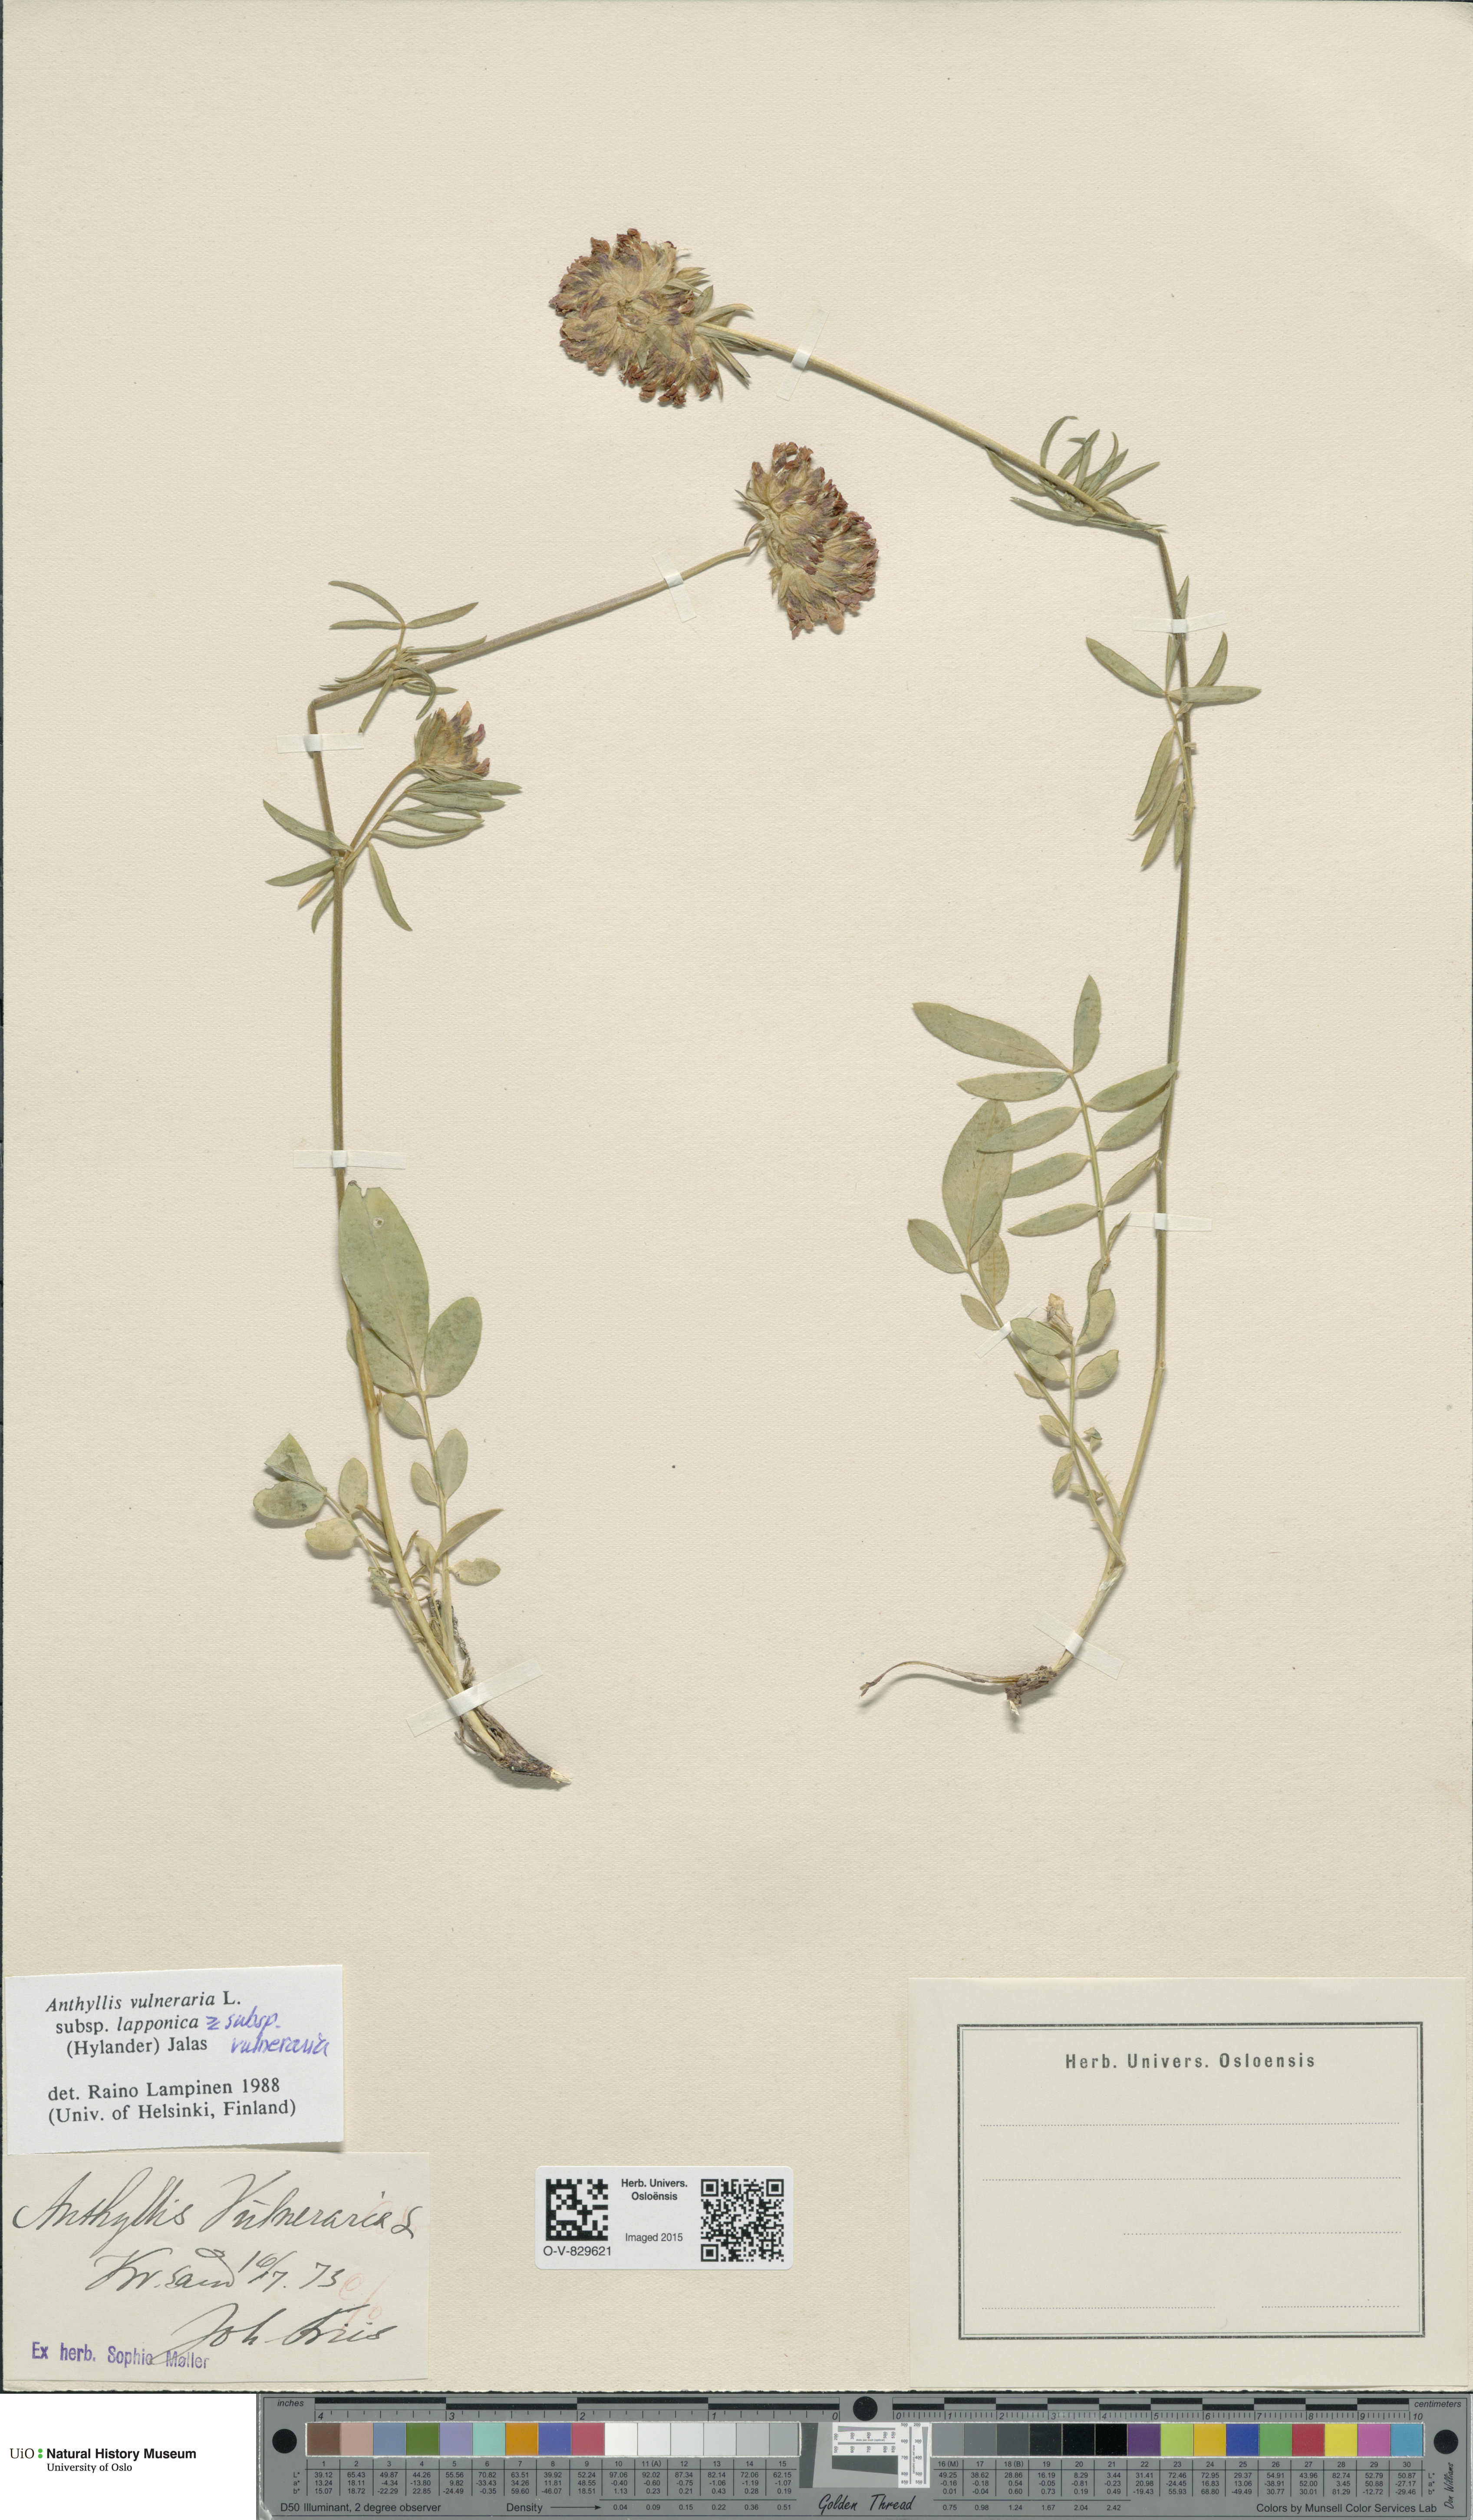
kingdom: Plantae
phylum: Tracheophyta
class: Magnoliopsida
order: Fabales
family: Fabaceae
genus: Anthyllis
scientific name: Anthyllis
